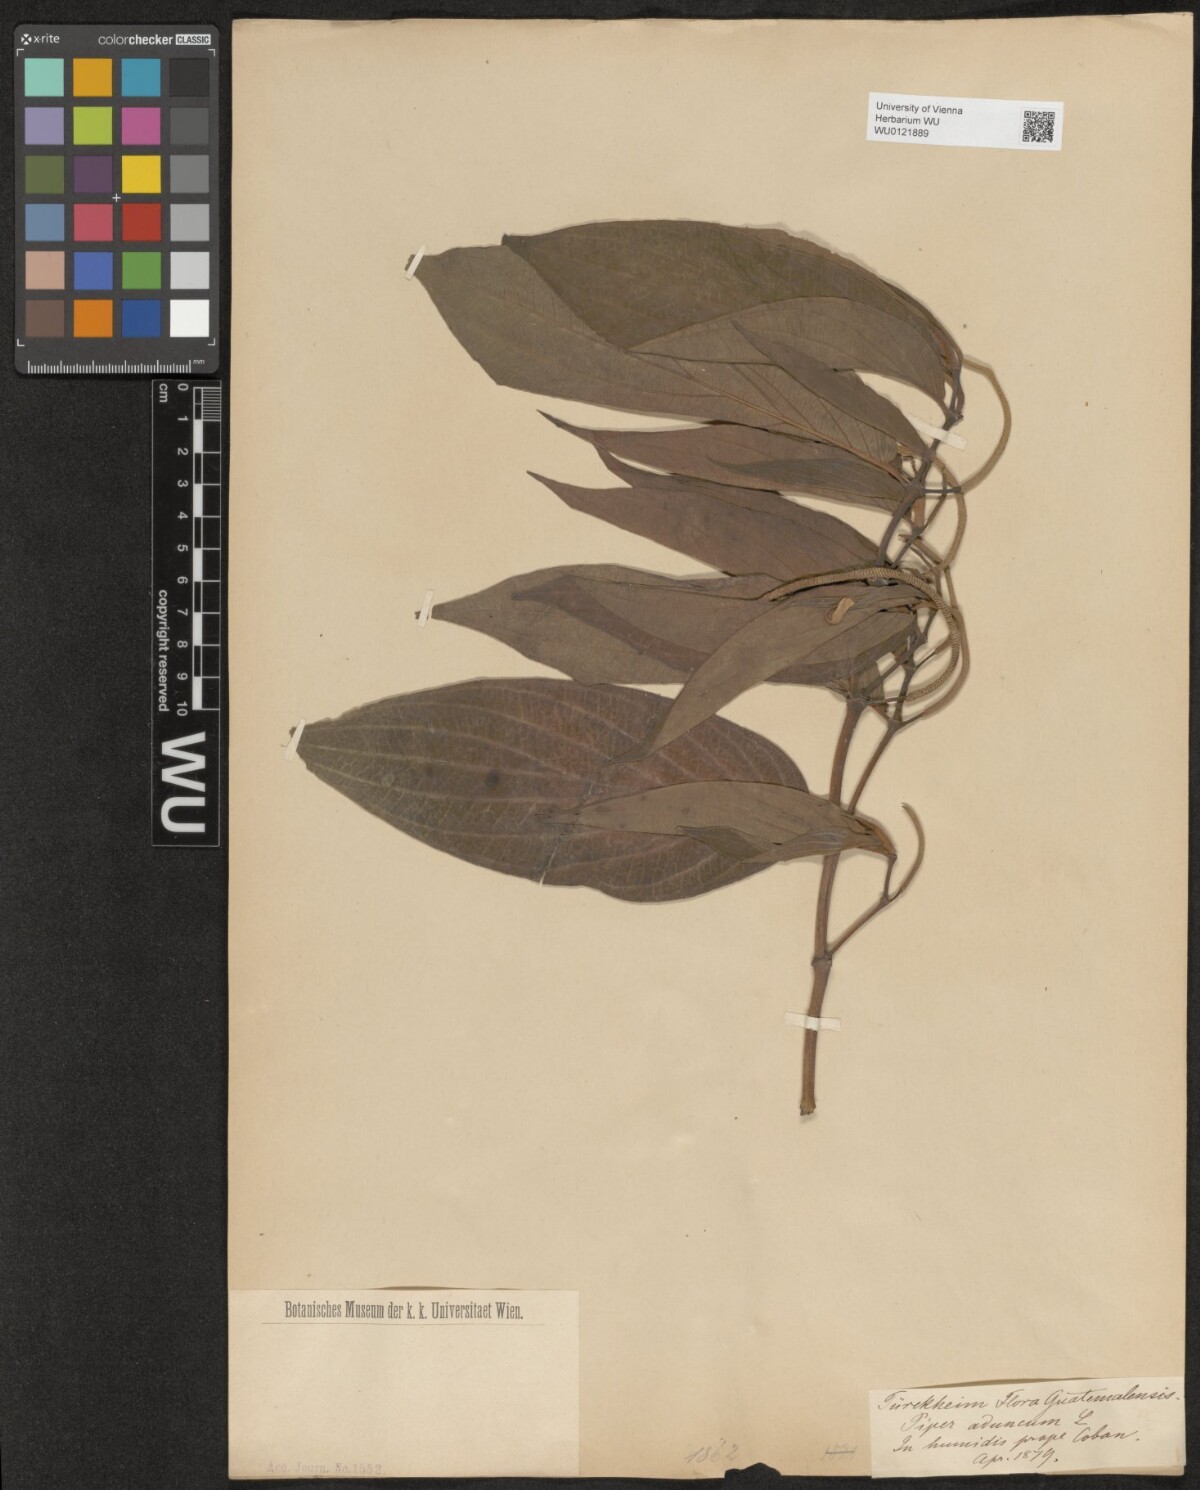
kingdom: Plantae
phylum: Tracheophyta
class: Magnoliopsida
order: Piperales
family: Piperaceae
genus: Piper
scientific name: Piper aduncum
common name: Spiked pepper
